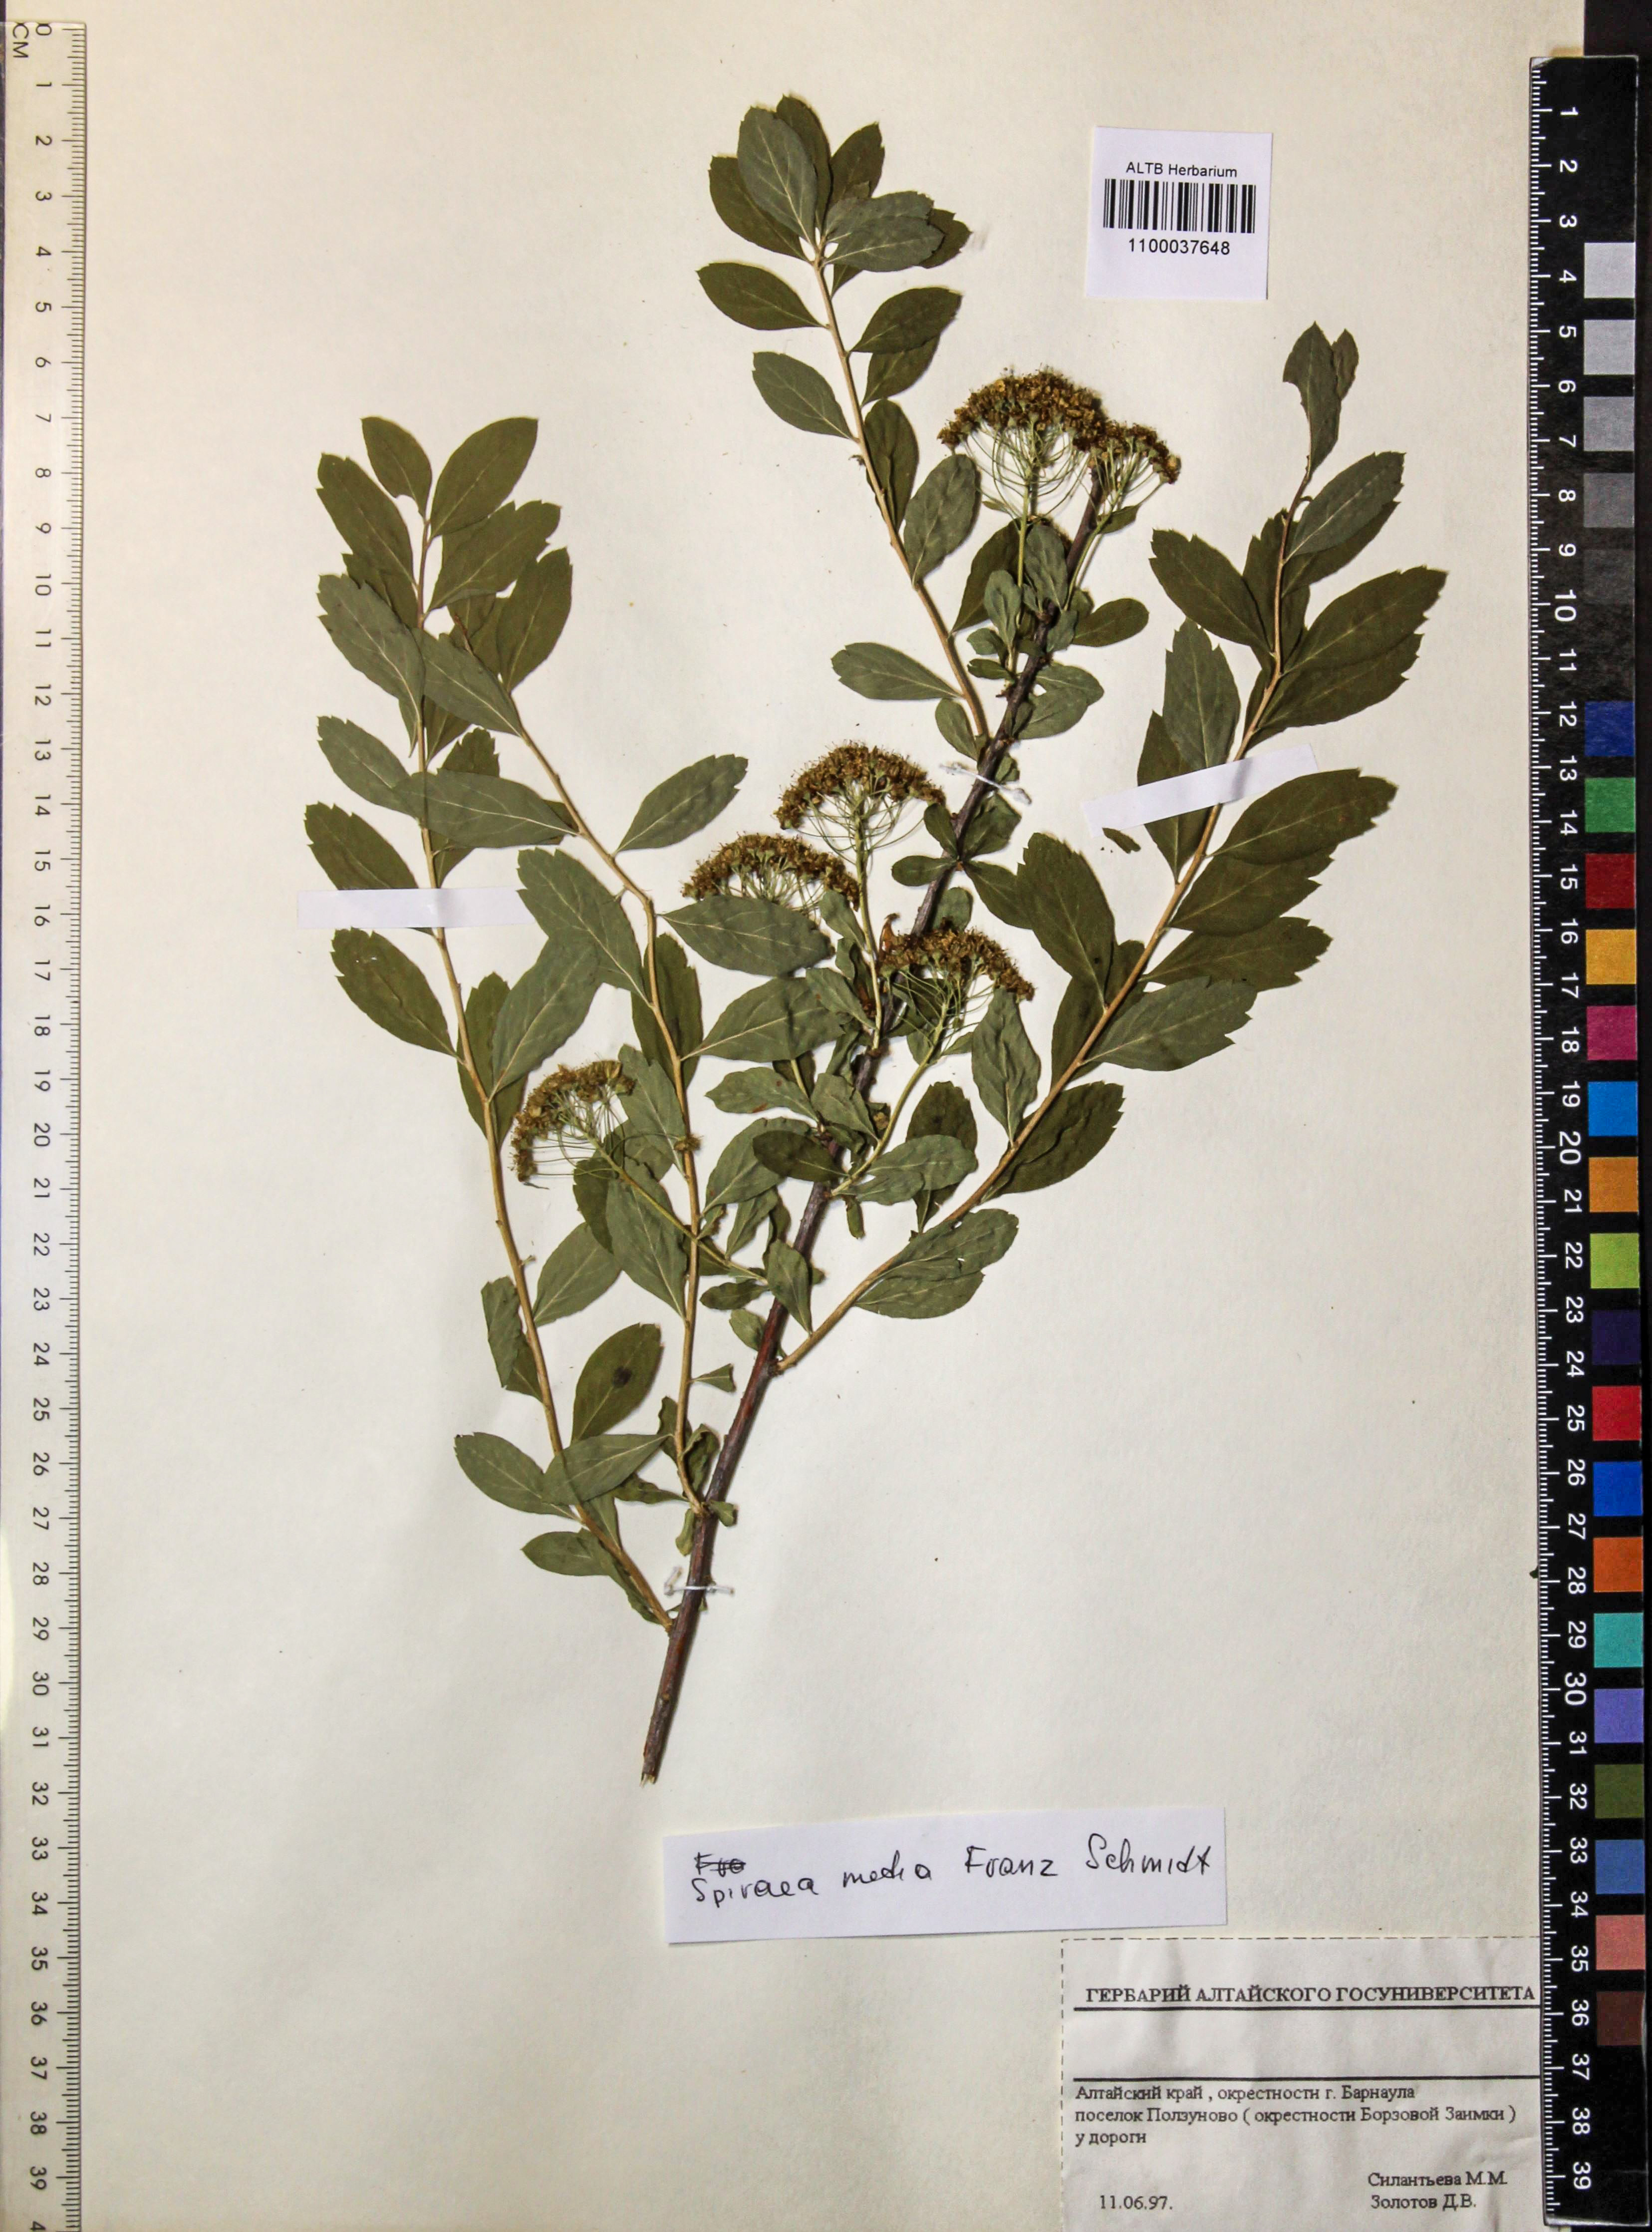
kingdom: Plantae
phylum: Tracheophyta
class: Magnoliopsida
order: Rosales
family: Rosaceae
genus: Spiraea
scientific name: Spiraea media
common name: Russian spiraea
